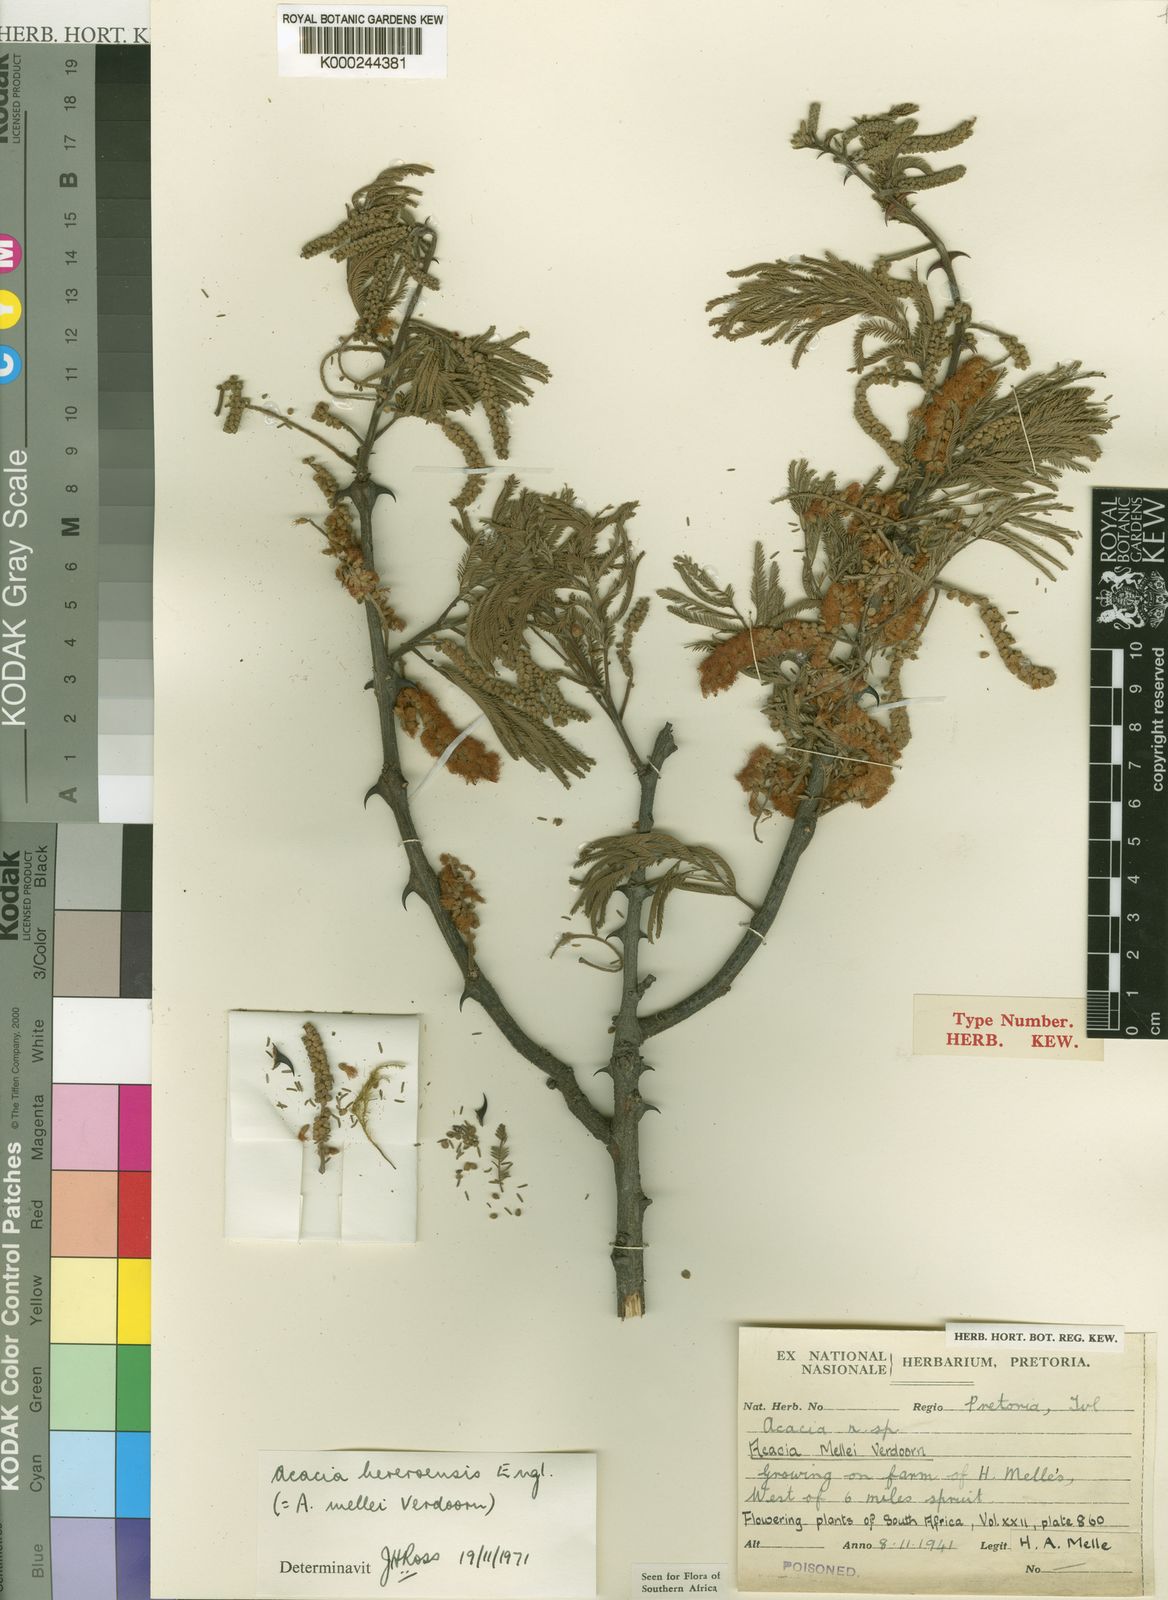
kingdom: Plantae
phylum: Tracheophyta
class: Magnoliopsida
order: Fabales
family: Fabaceae
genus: Senegalia
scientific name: Senegalia hereroensis
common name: Arid hook-thorn
